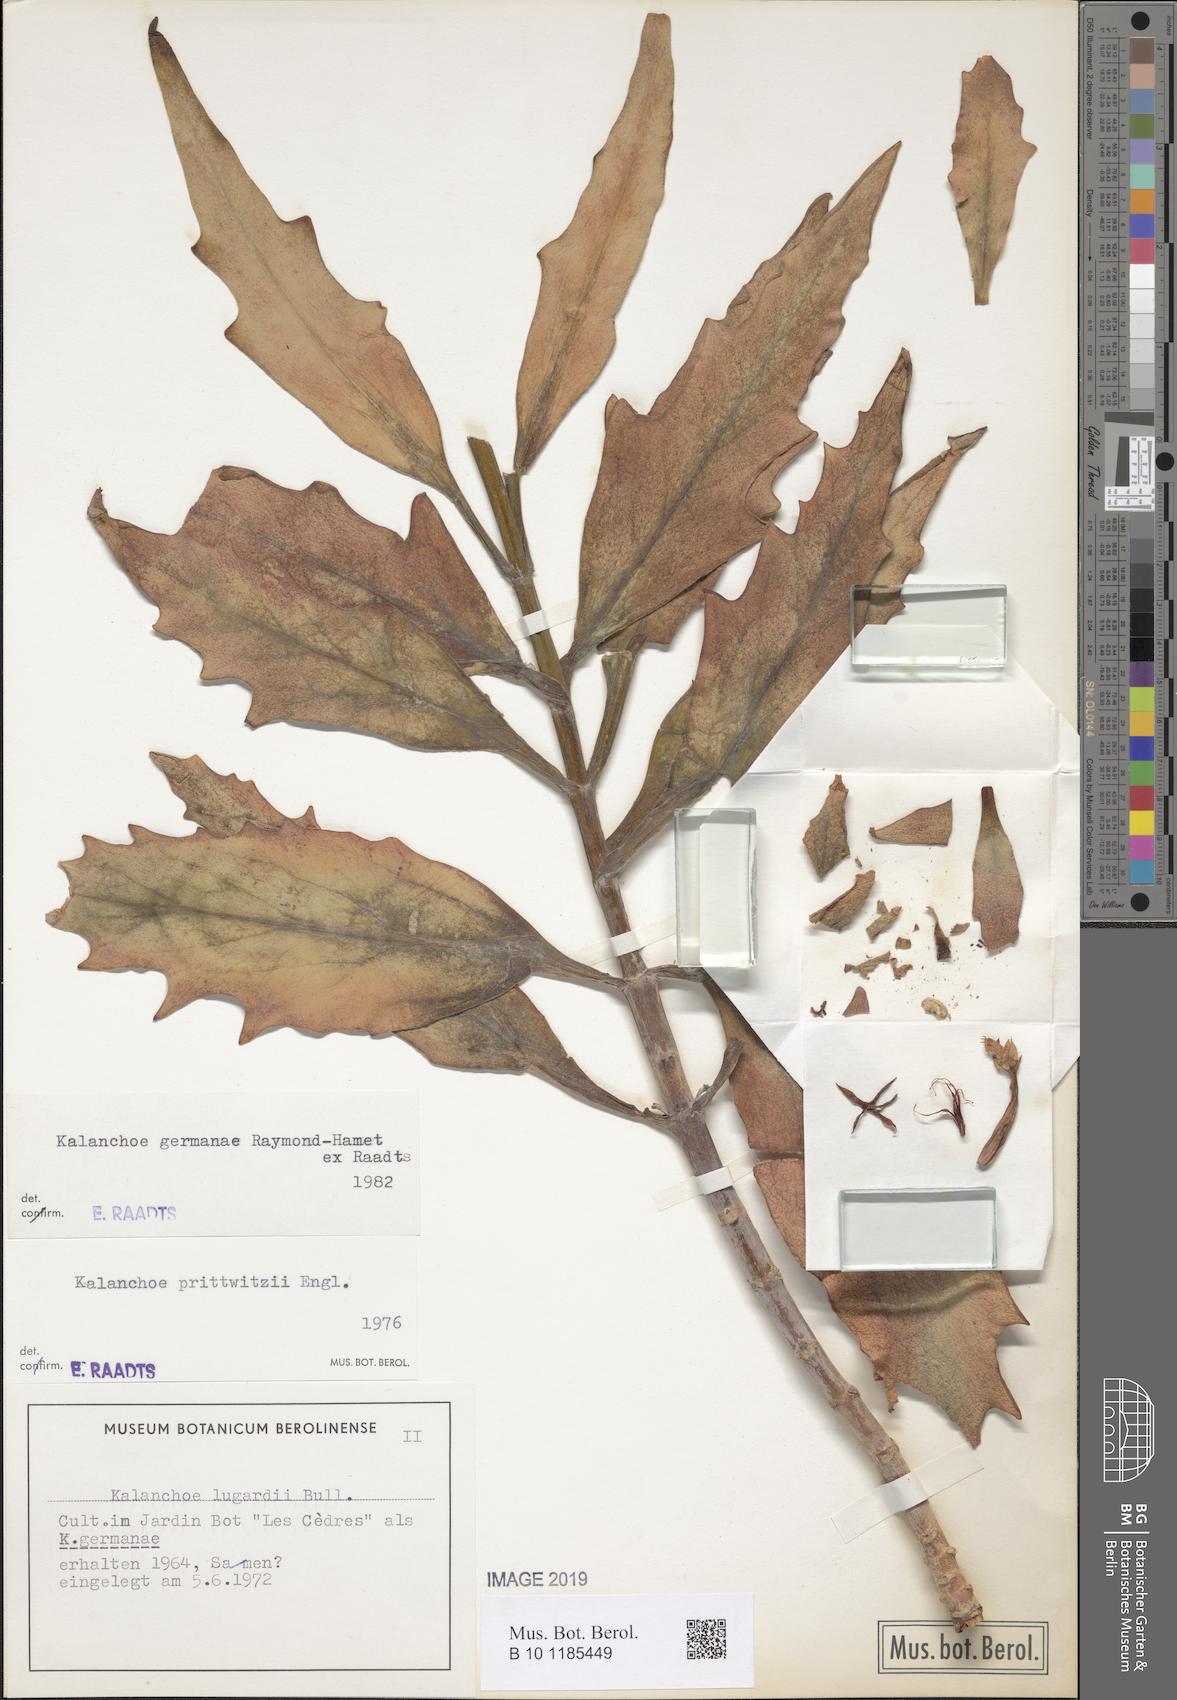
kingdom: Plantae
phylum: Tracheophyta
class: Magnoliopsida
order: Saxifragales
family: Crassulaceae
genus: Kalanchoe
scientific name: Kalanchoe germanae
